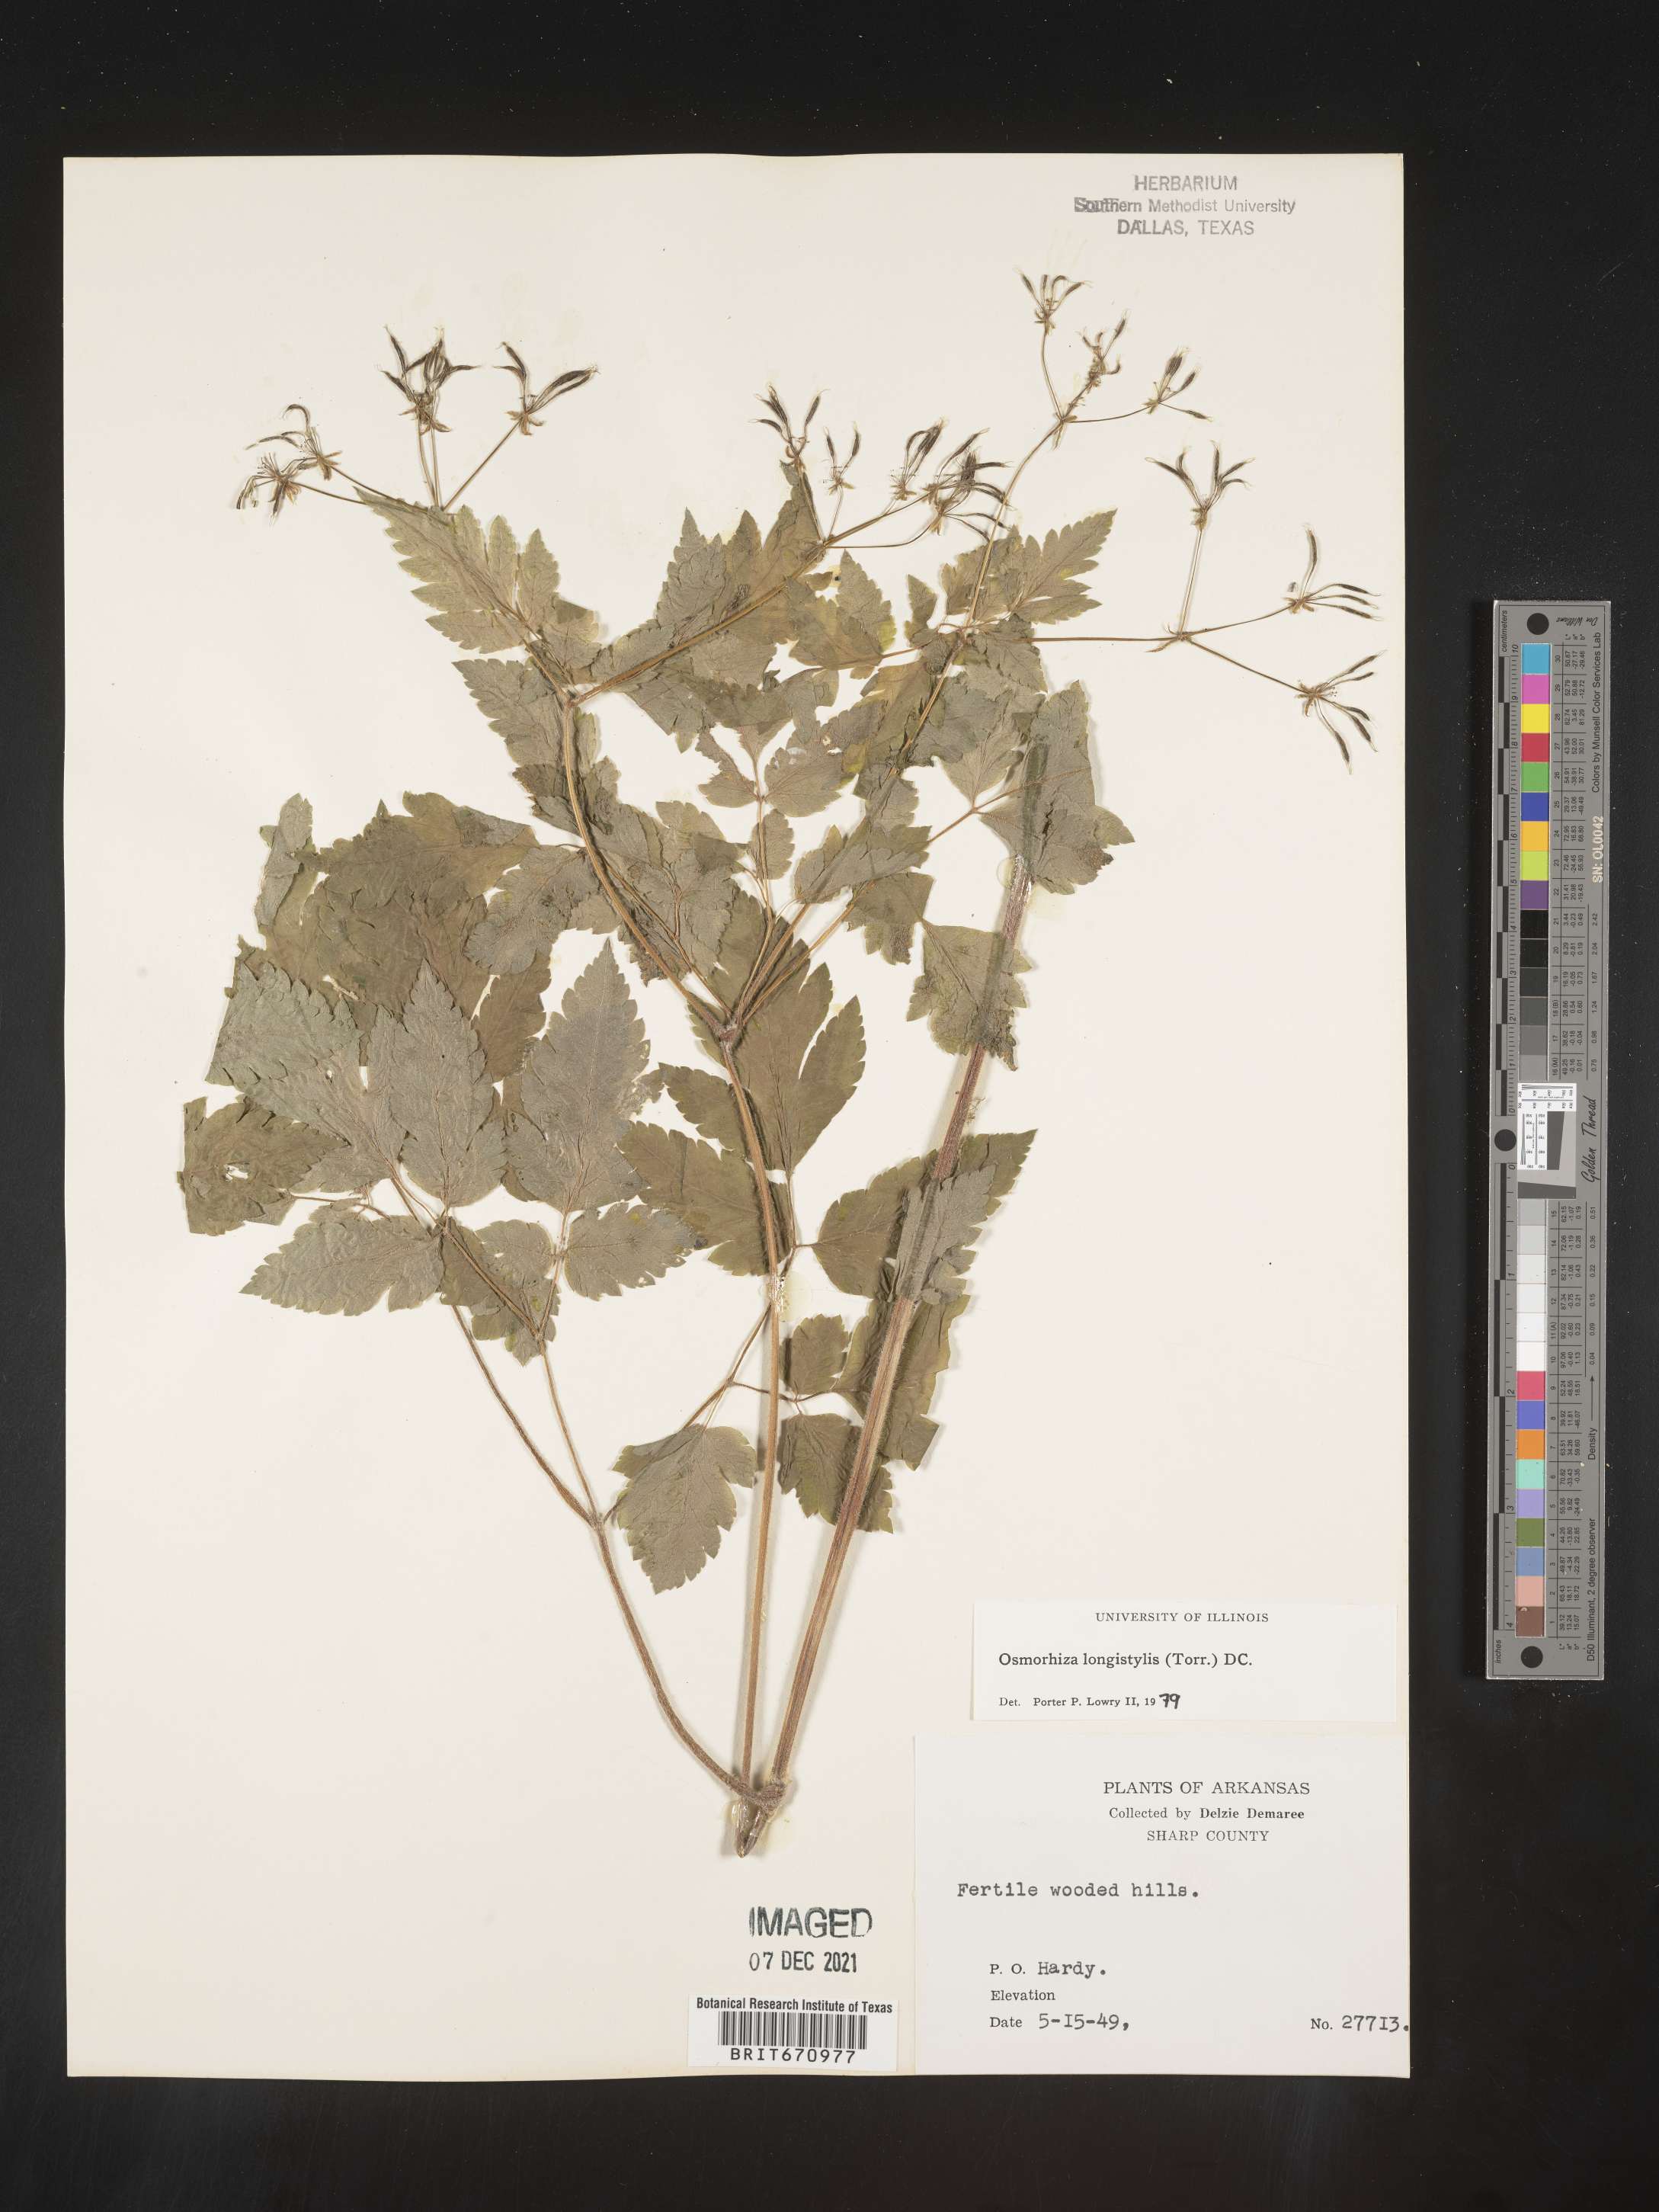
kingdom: Plantae
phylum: Tracheophyta
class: Magnoliopsida
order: Apiales
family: Apiaceae
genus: Osmorhiza
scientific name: Osmorhiza longistylis
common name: Smooth sweet cicely
